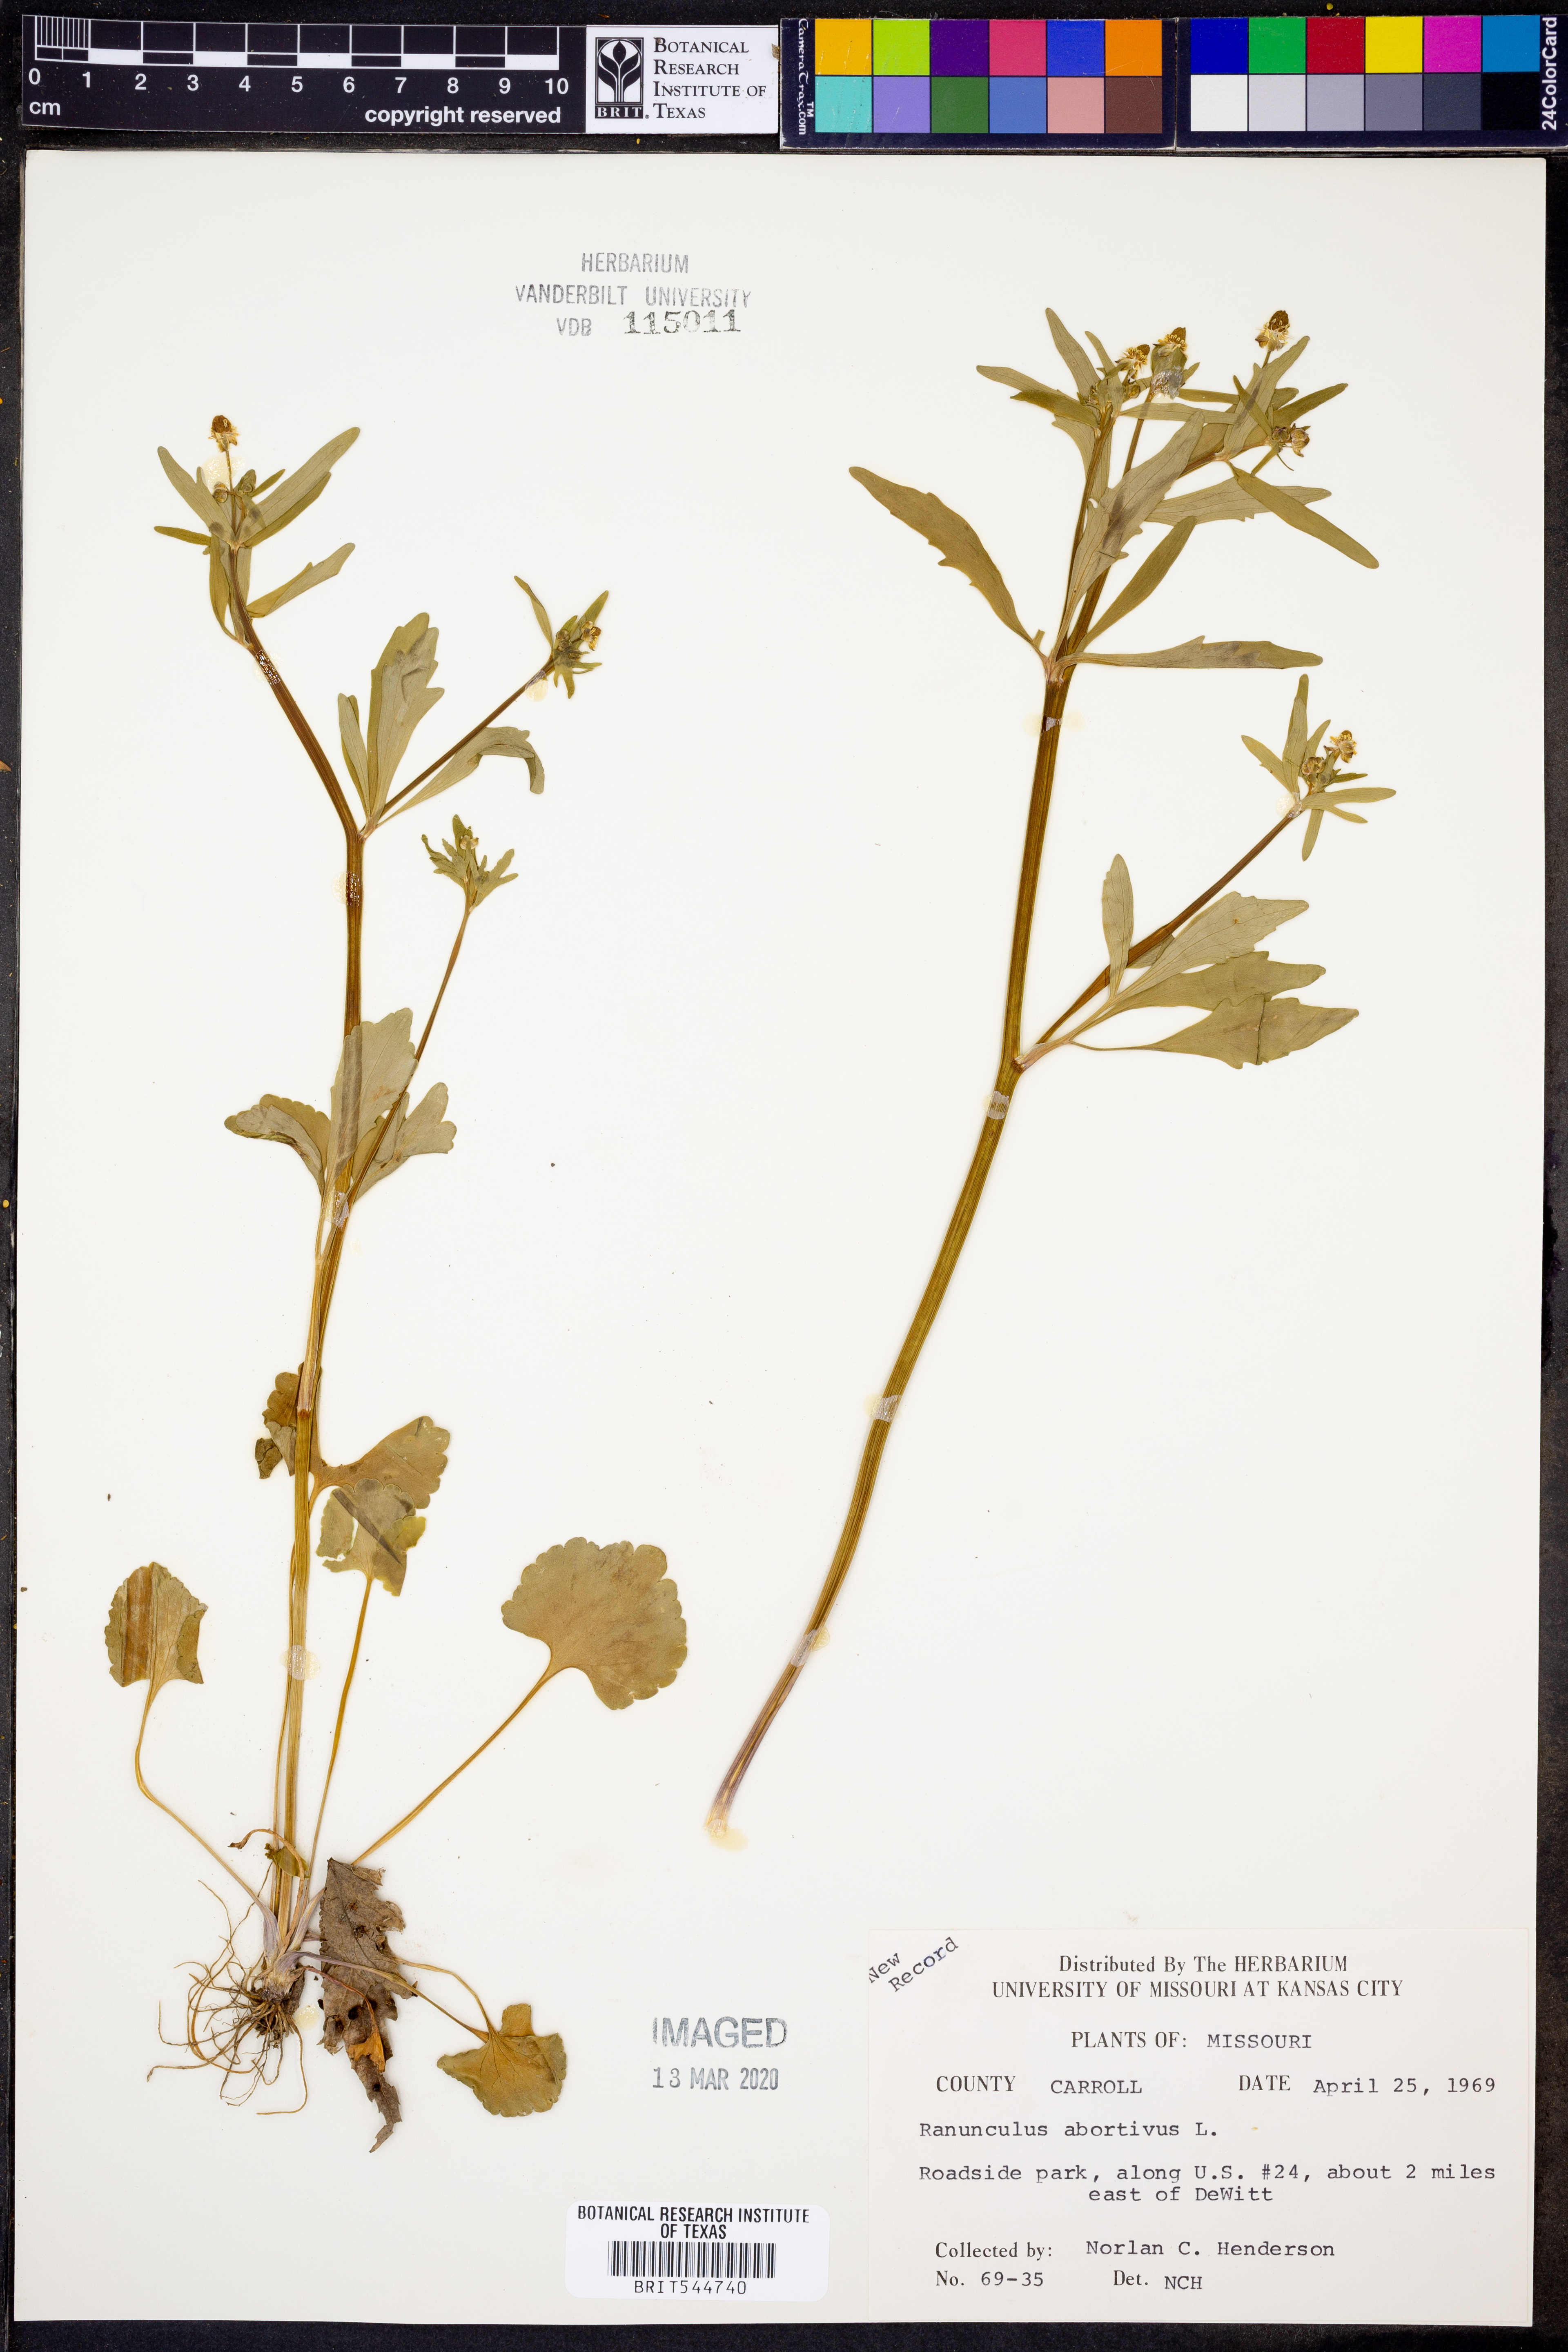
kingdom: Plantae
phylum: Tracheophyta
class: Magnoliopsida
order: Ranunculales
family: Ranunculaceae
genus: Ranunculus
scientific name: Ranunculus abortivus
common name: Early wood buttercup
